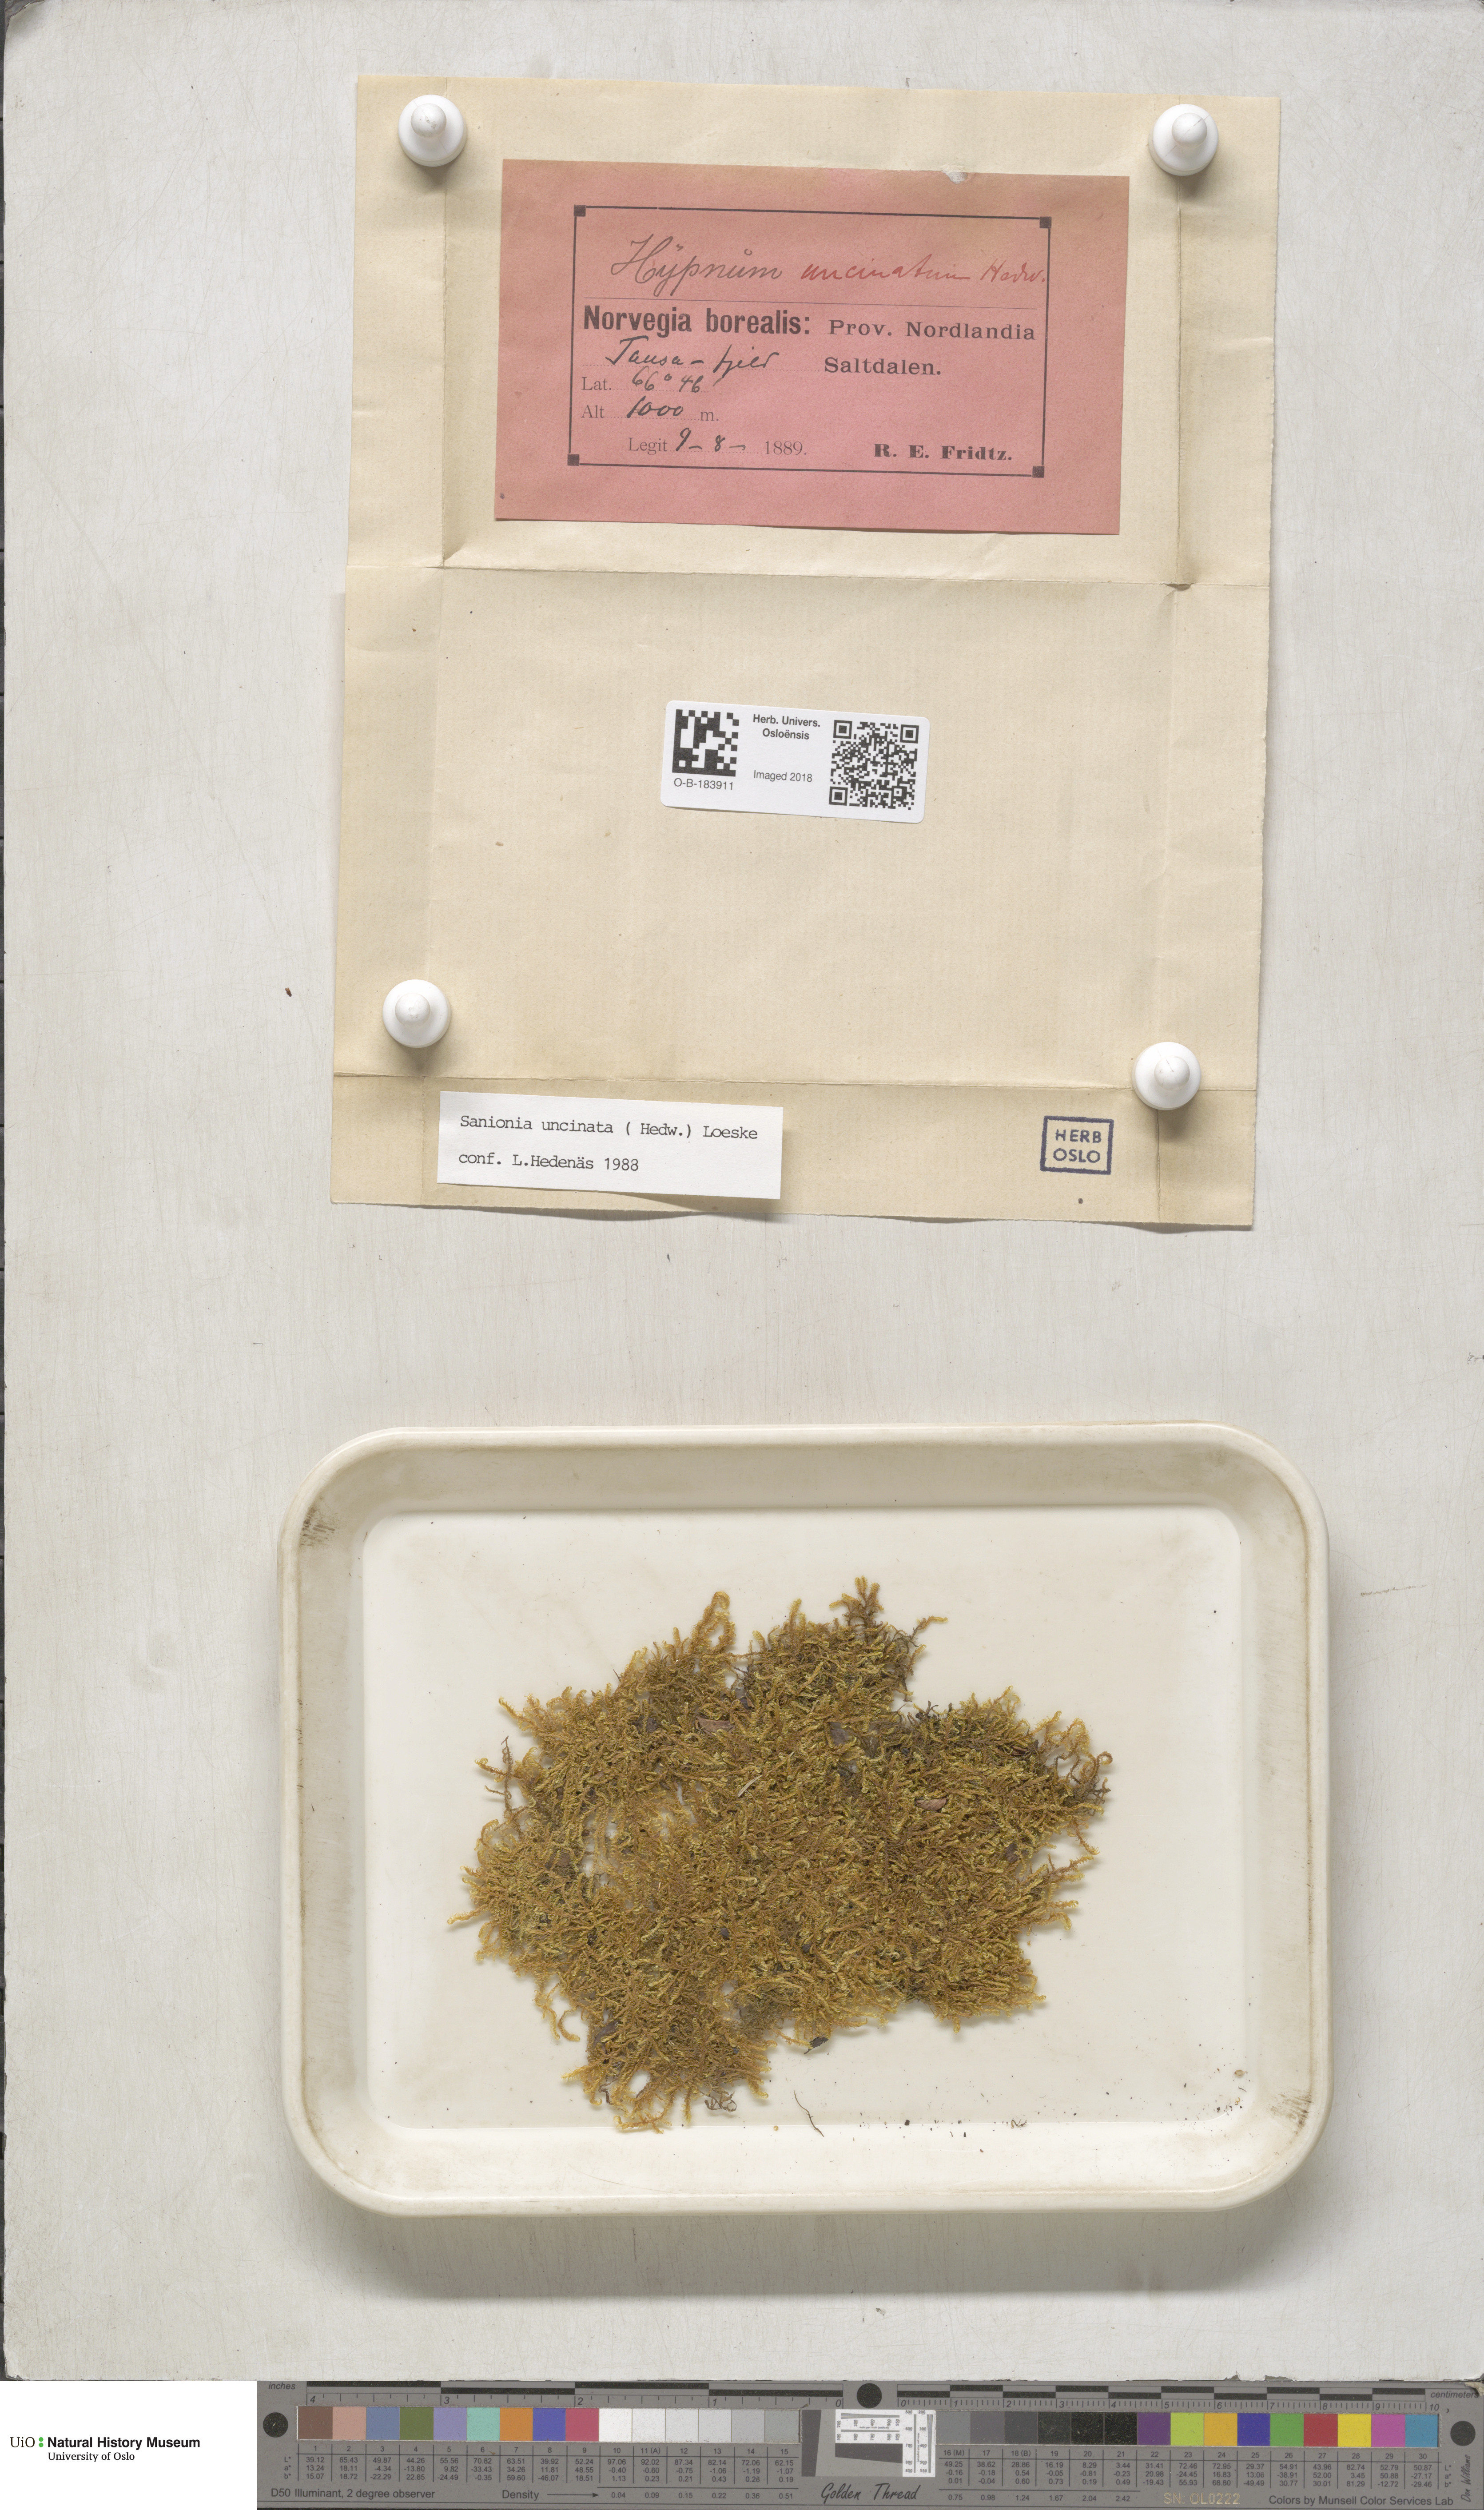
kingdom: Plantae
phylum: Bryophyta
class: Bryopsida
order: Hypnales
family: Scorpidiaceae
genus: Sanionia
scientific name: Sanionia uncinata
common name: Sickle moss
